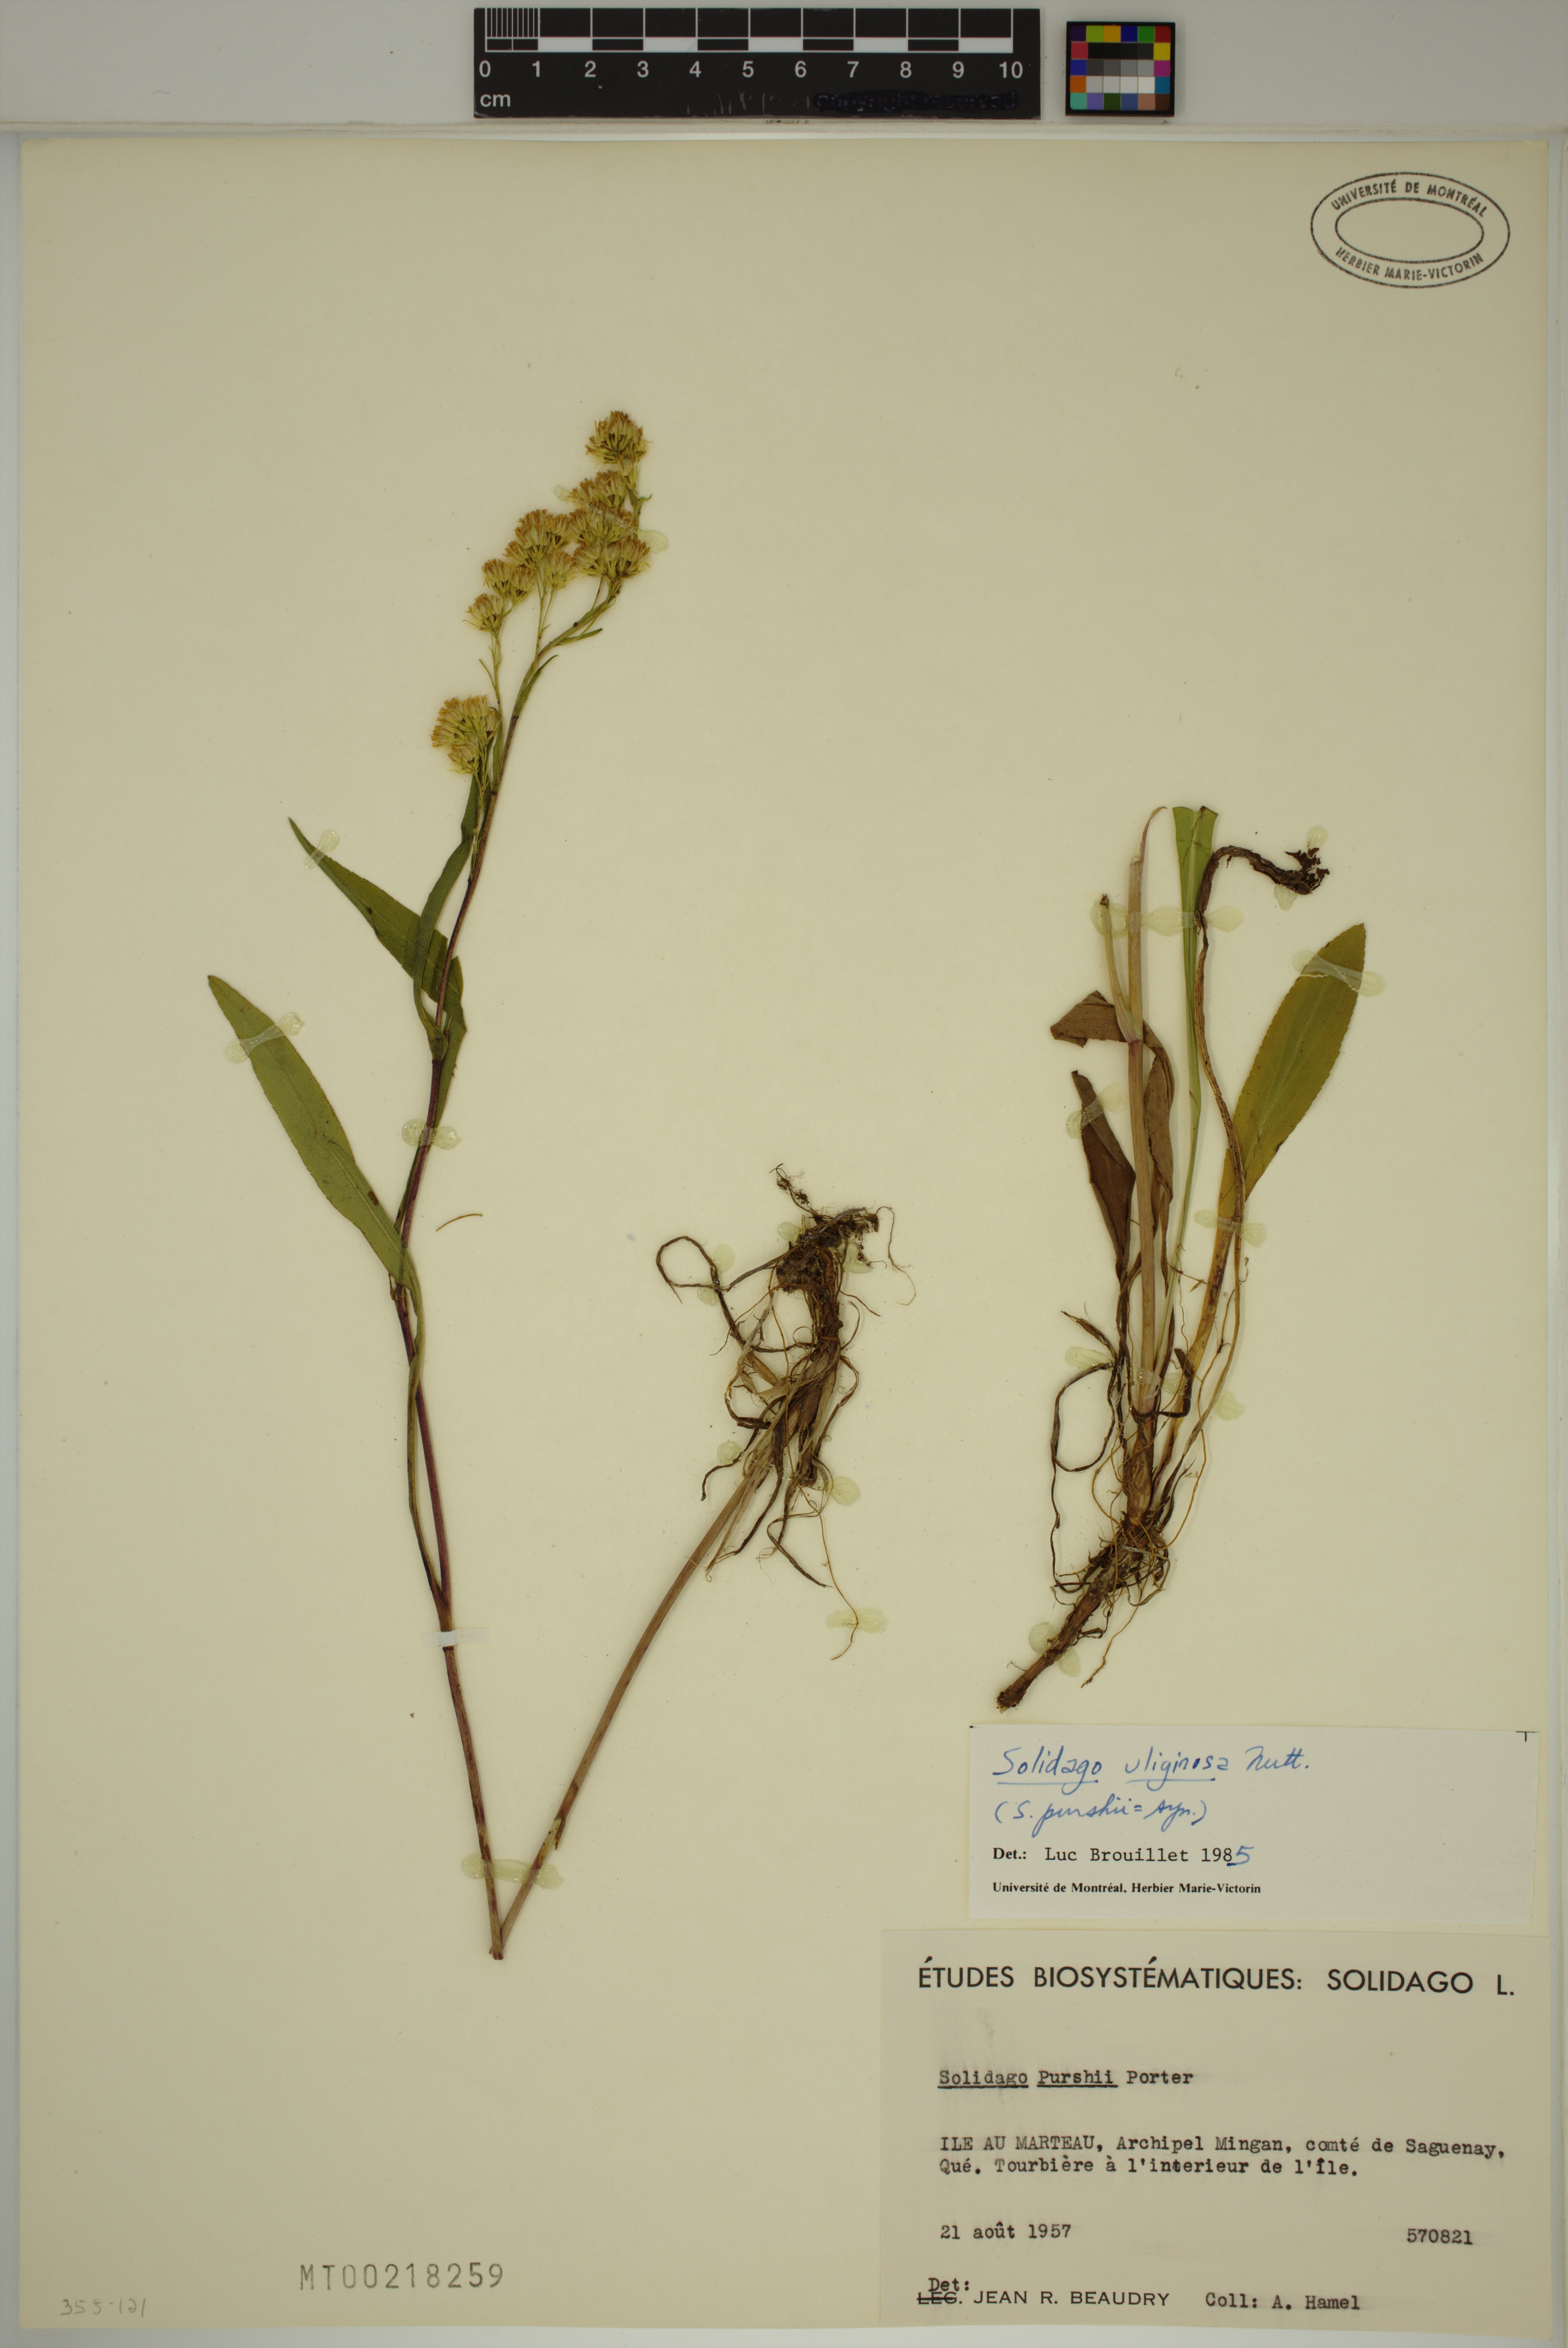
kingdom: Plantae
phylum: Tracheophyta
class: Magnoliopsida
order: Asterales
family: Asteraceae
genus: Solidago
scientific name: Solidago uliginosa
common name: Bog goldenrod
